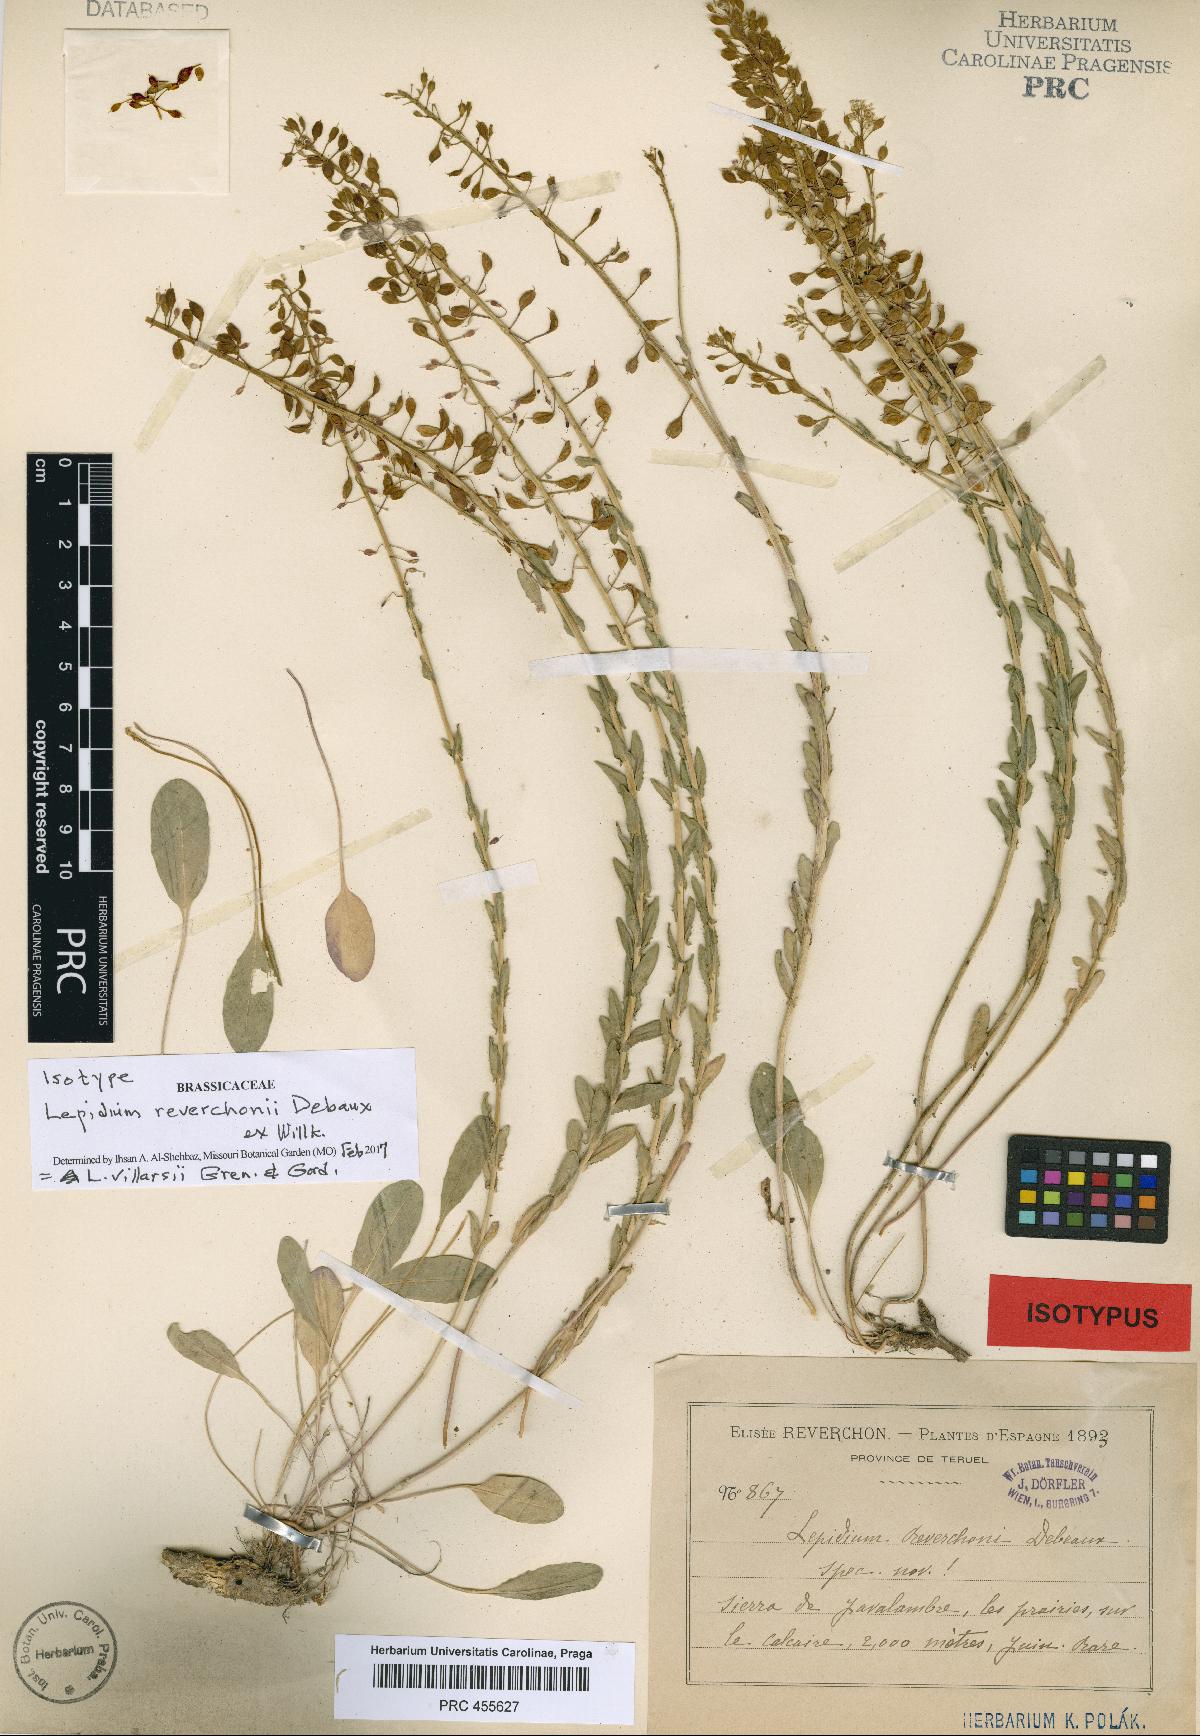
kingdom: Plantae
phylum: Tracheophyta
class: Magnoliopsida
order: Brassicales
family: Brassicaceae
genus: Lepidium
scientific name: Lepidium villarsii
